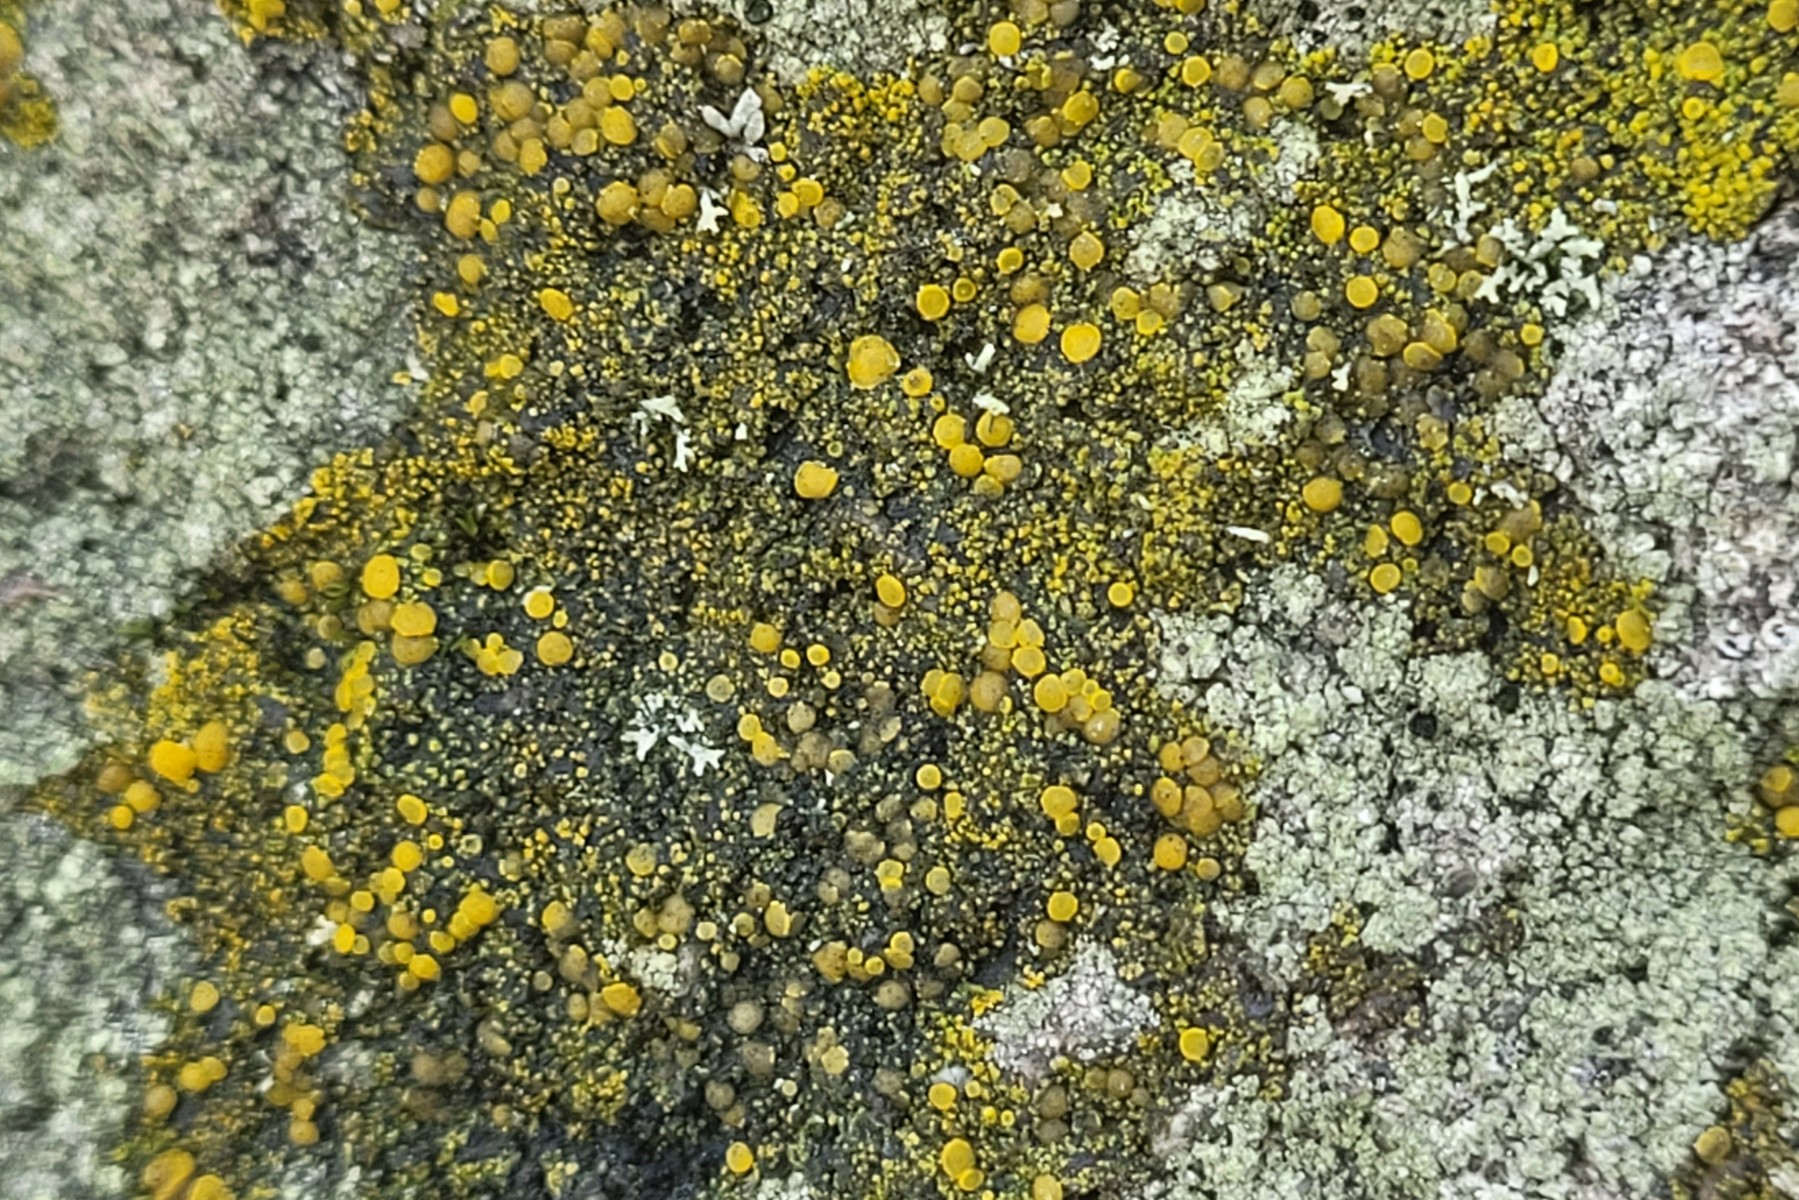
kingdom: Fungi
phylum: Ascomycota
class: Candelariomycetes
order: Candelariales
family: Candelariaceae
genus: Candelariella
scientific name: Candelariella vitellina
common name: almindelig æggeblommelav
